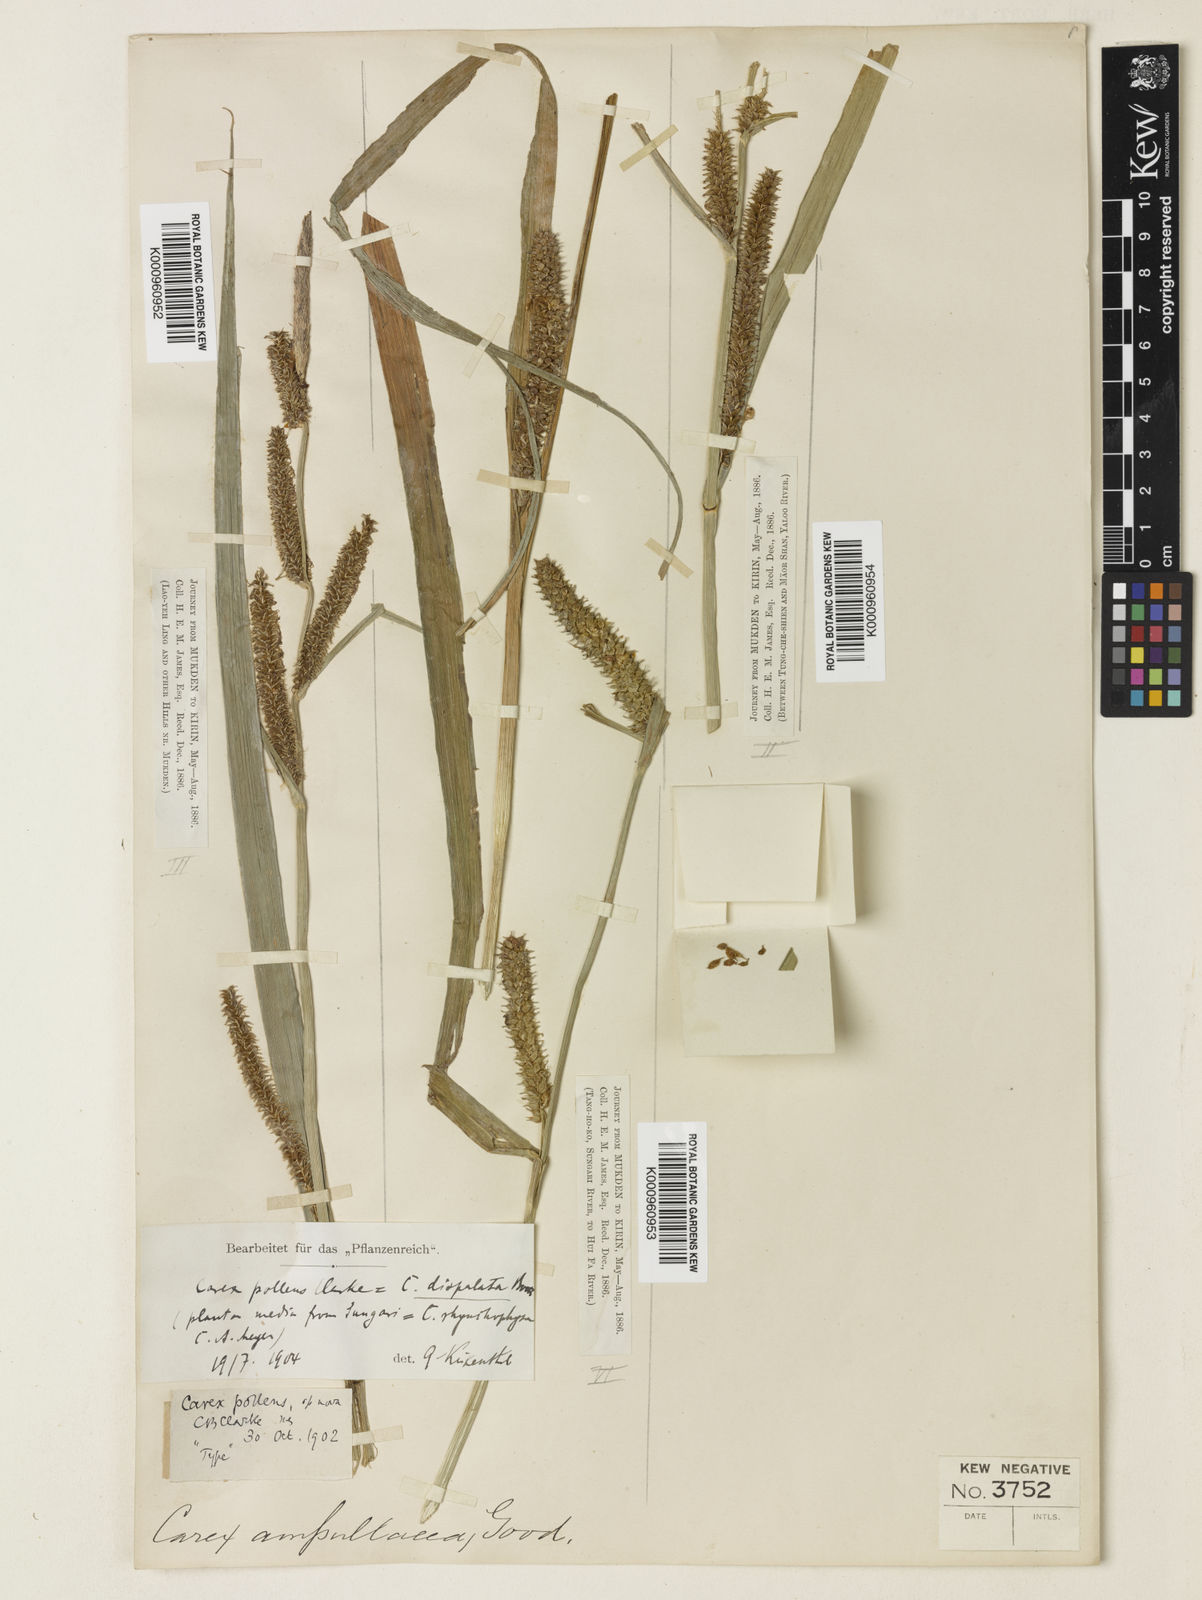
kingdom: Plantae
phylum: Tracheophyta
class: Liliopsida
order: Poales
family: Cyperaceae
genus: Carex
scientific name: Carex dispalata
